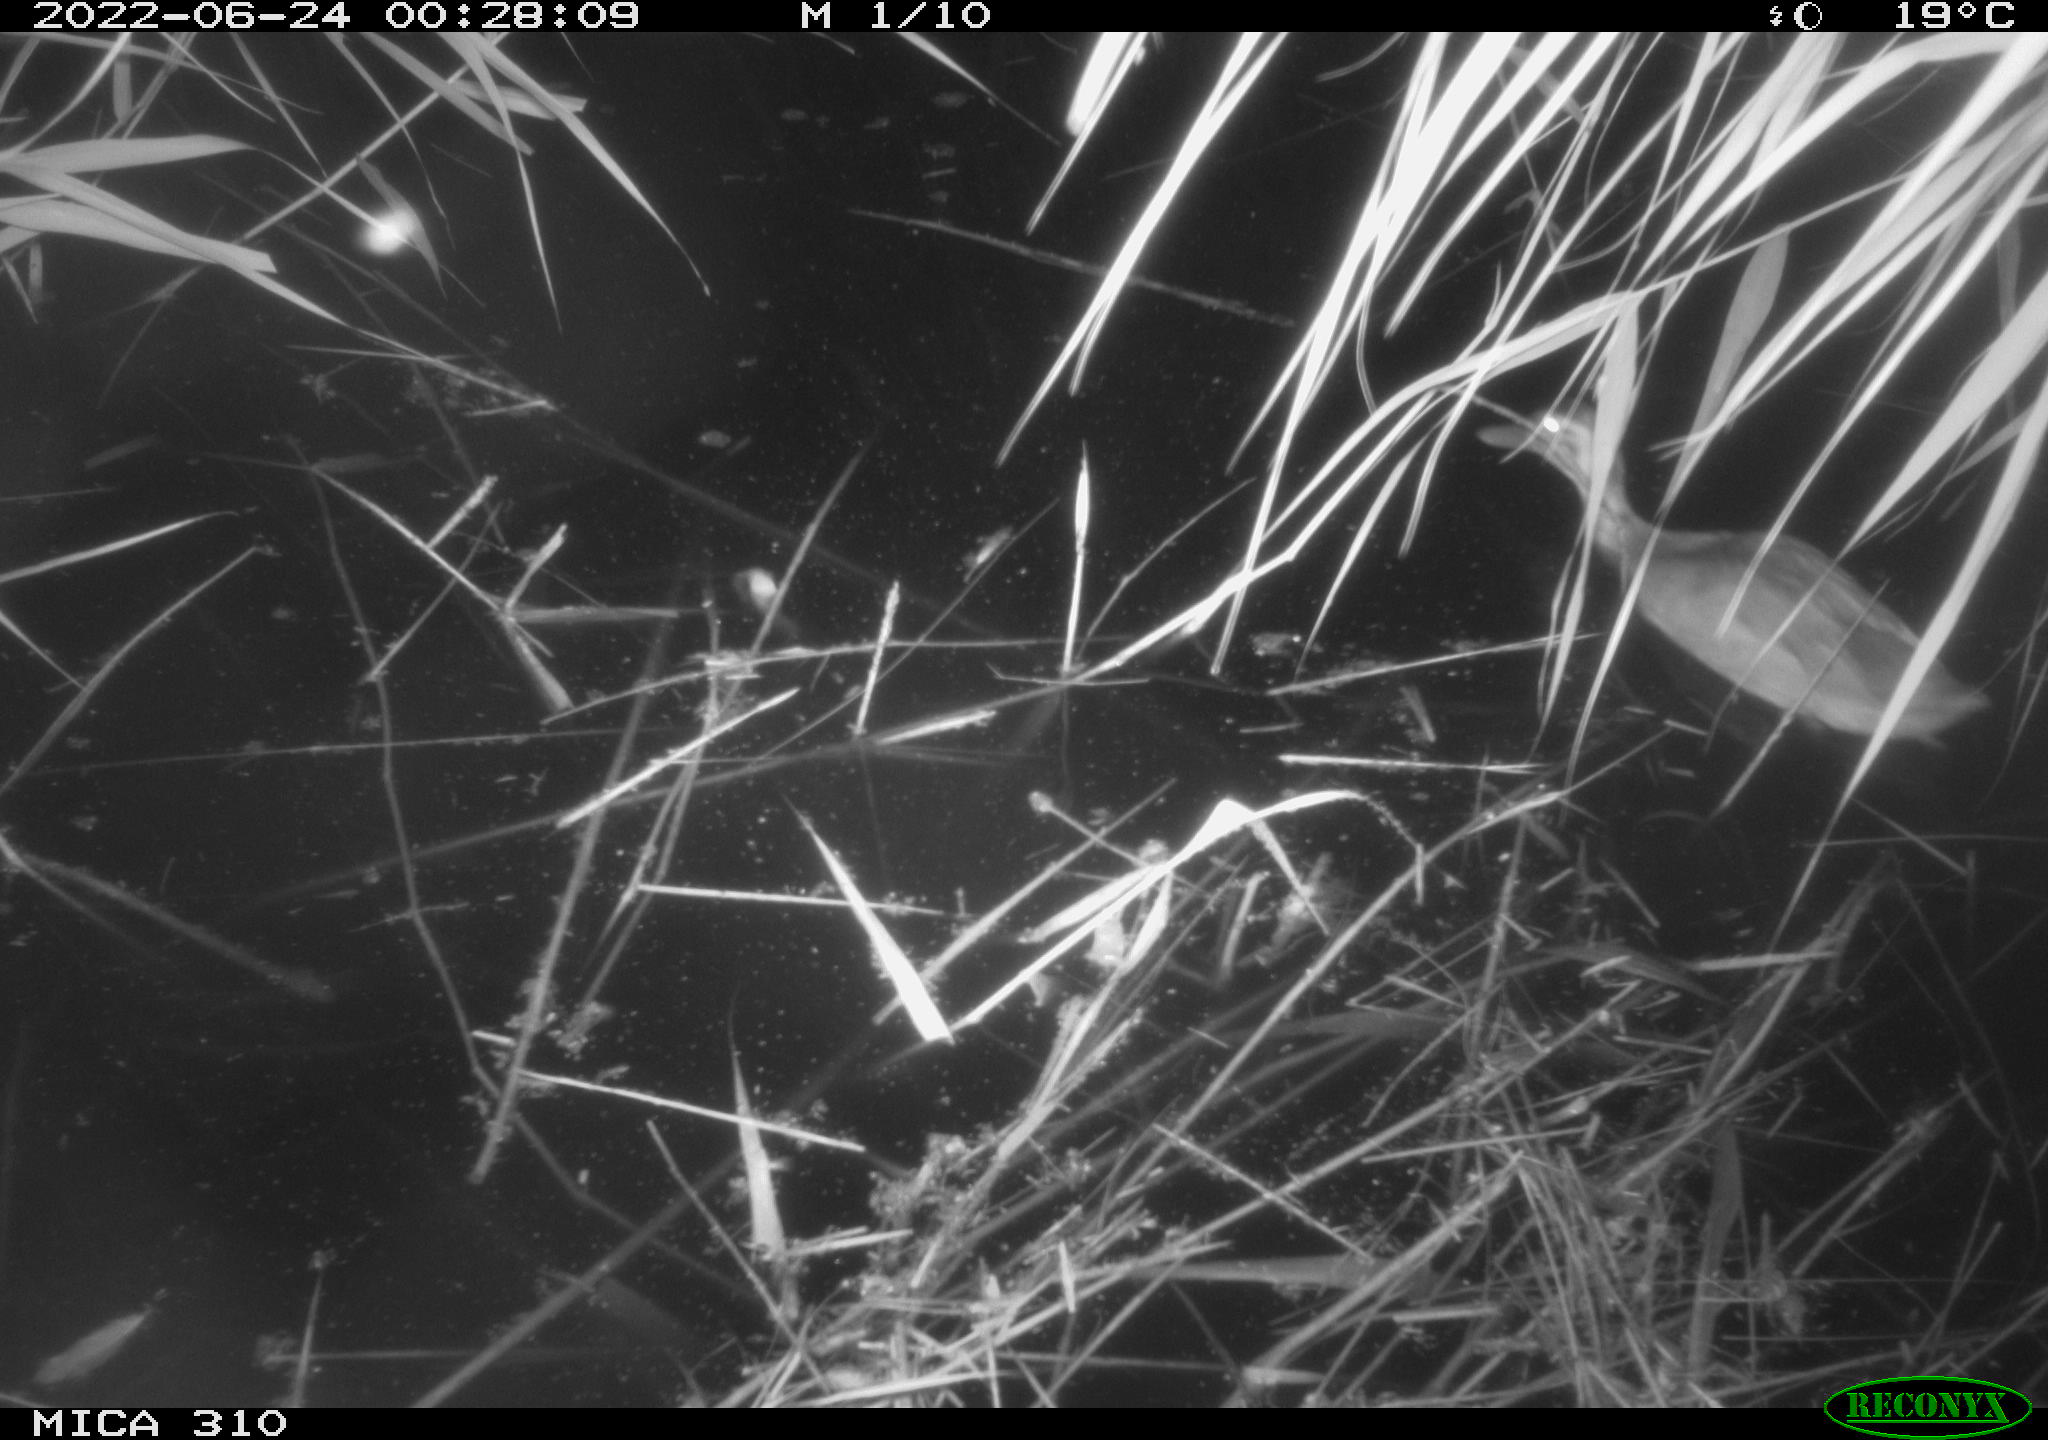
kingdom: Animalia
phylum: Chordata
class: Aves
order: Anseriformes
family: Anatidae
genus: Anas
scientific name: Anas platyrhynchos
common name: Mallard
